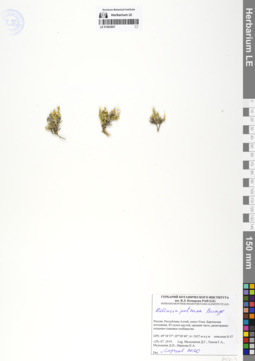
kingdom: Plantae
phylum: Tracheophyta
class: Magnoliopsida
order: Caryophyllales
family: Caryophyllaceae
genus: Adenonema
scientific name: Adenonema petraeum
